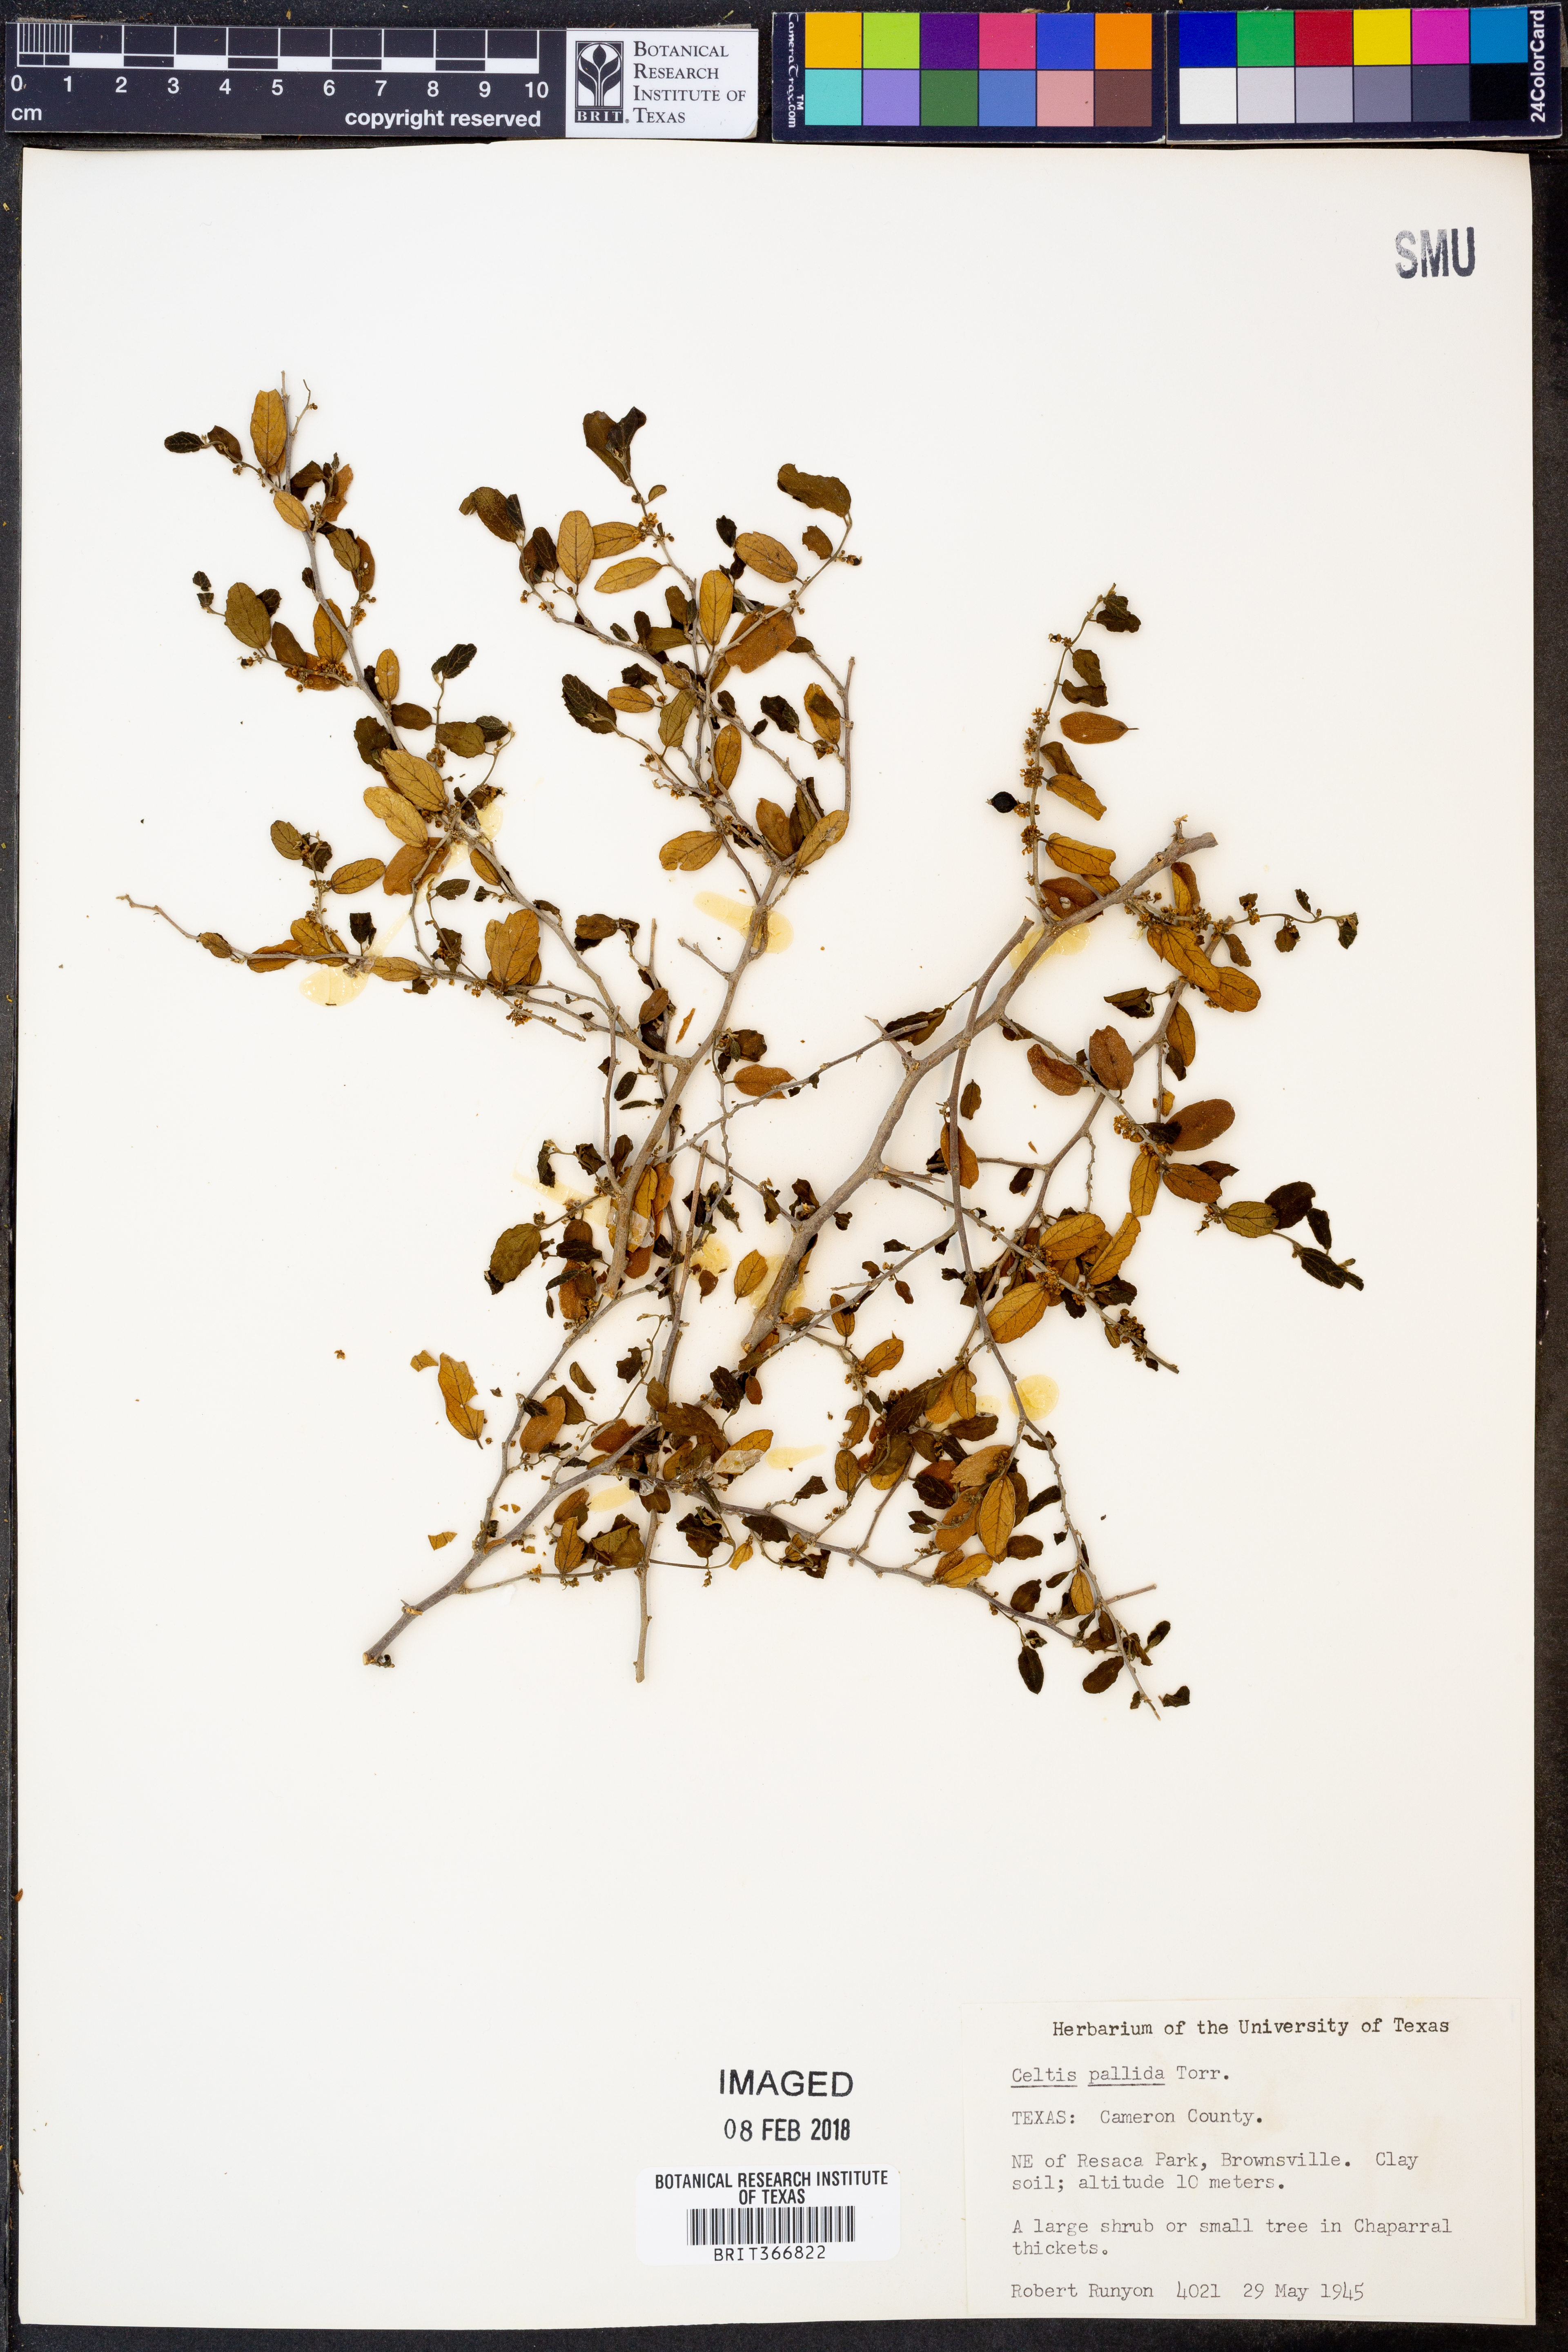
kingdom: Plantae
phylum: Tracheophyta
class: Magnoliopsida
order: Rosales
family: Cannabaceae
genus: Celtis
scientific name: Celtis pallida
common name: Desert hackberry
